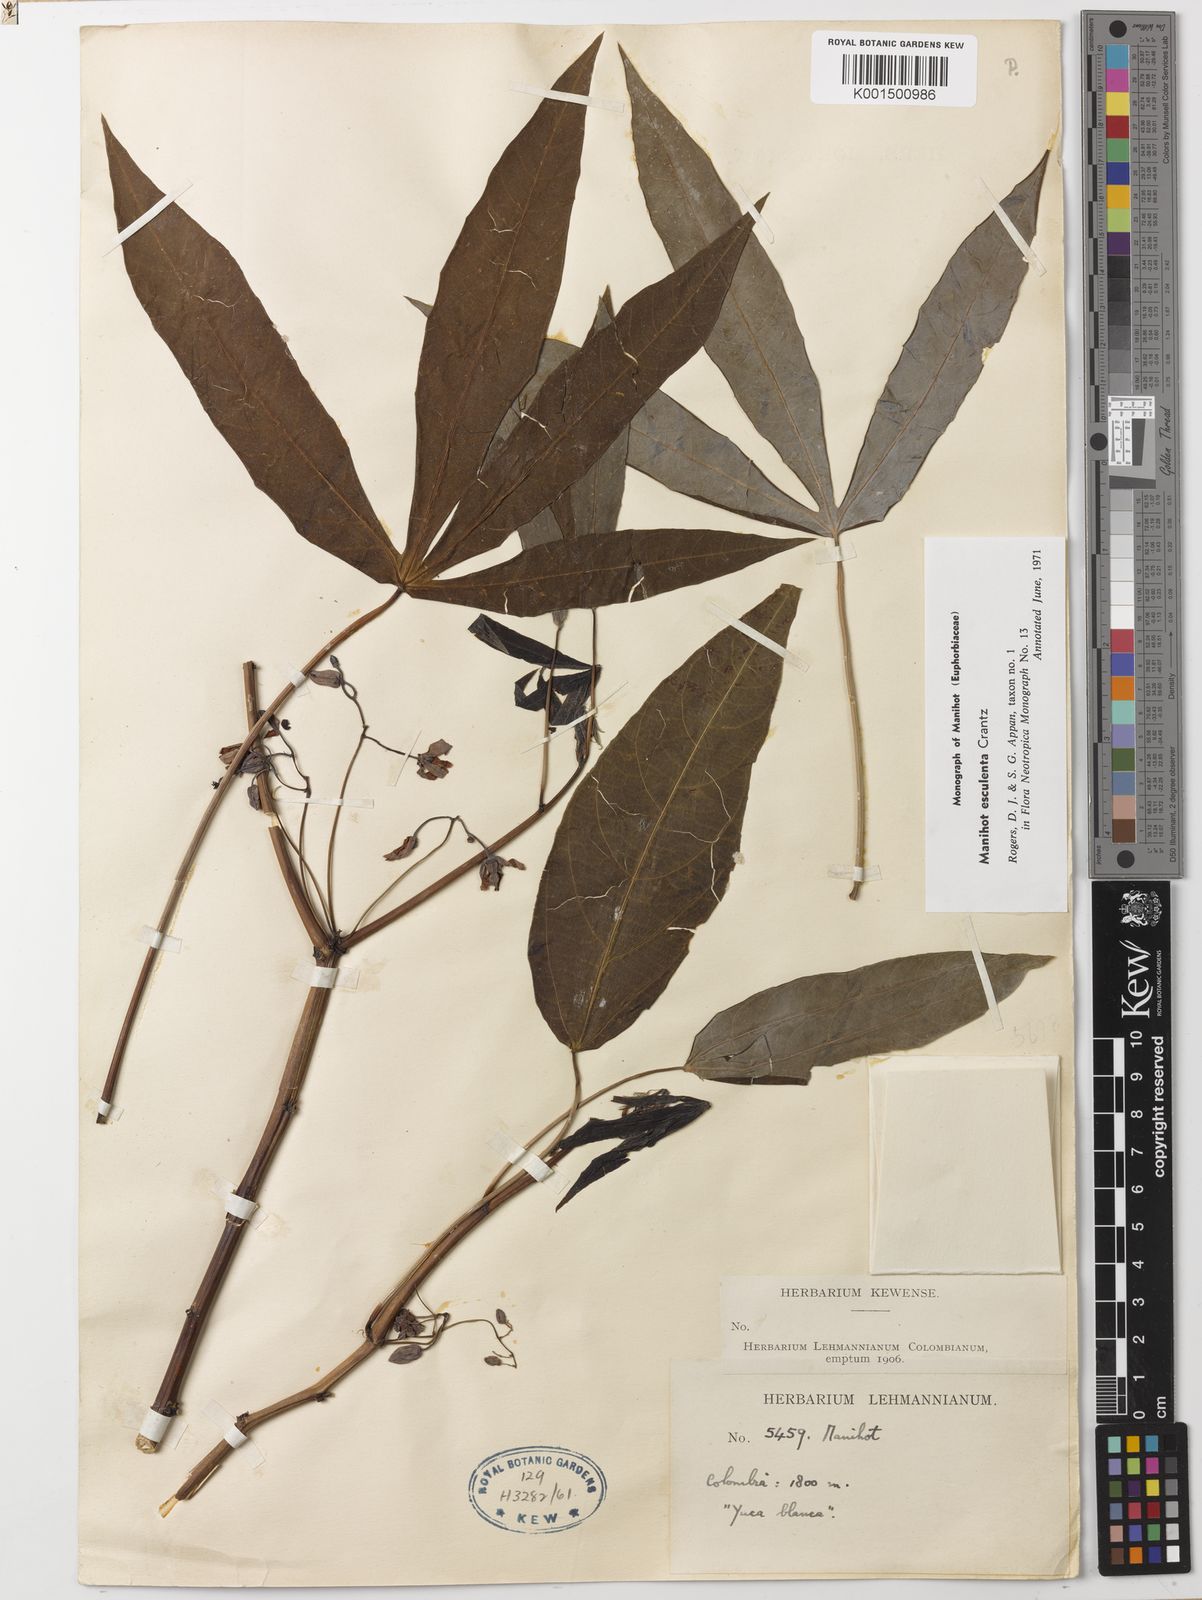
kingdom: Plantae
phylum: Tracheophyta
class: Magnoliopsida
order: Malpighiales
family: Euphorbiaceae
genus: Manihot
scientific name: Manihot esculenta
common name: Cassava
